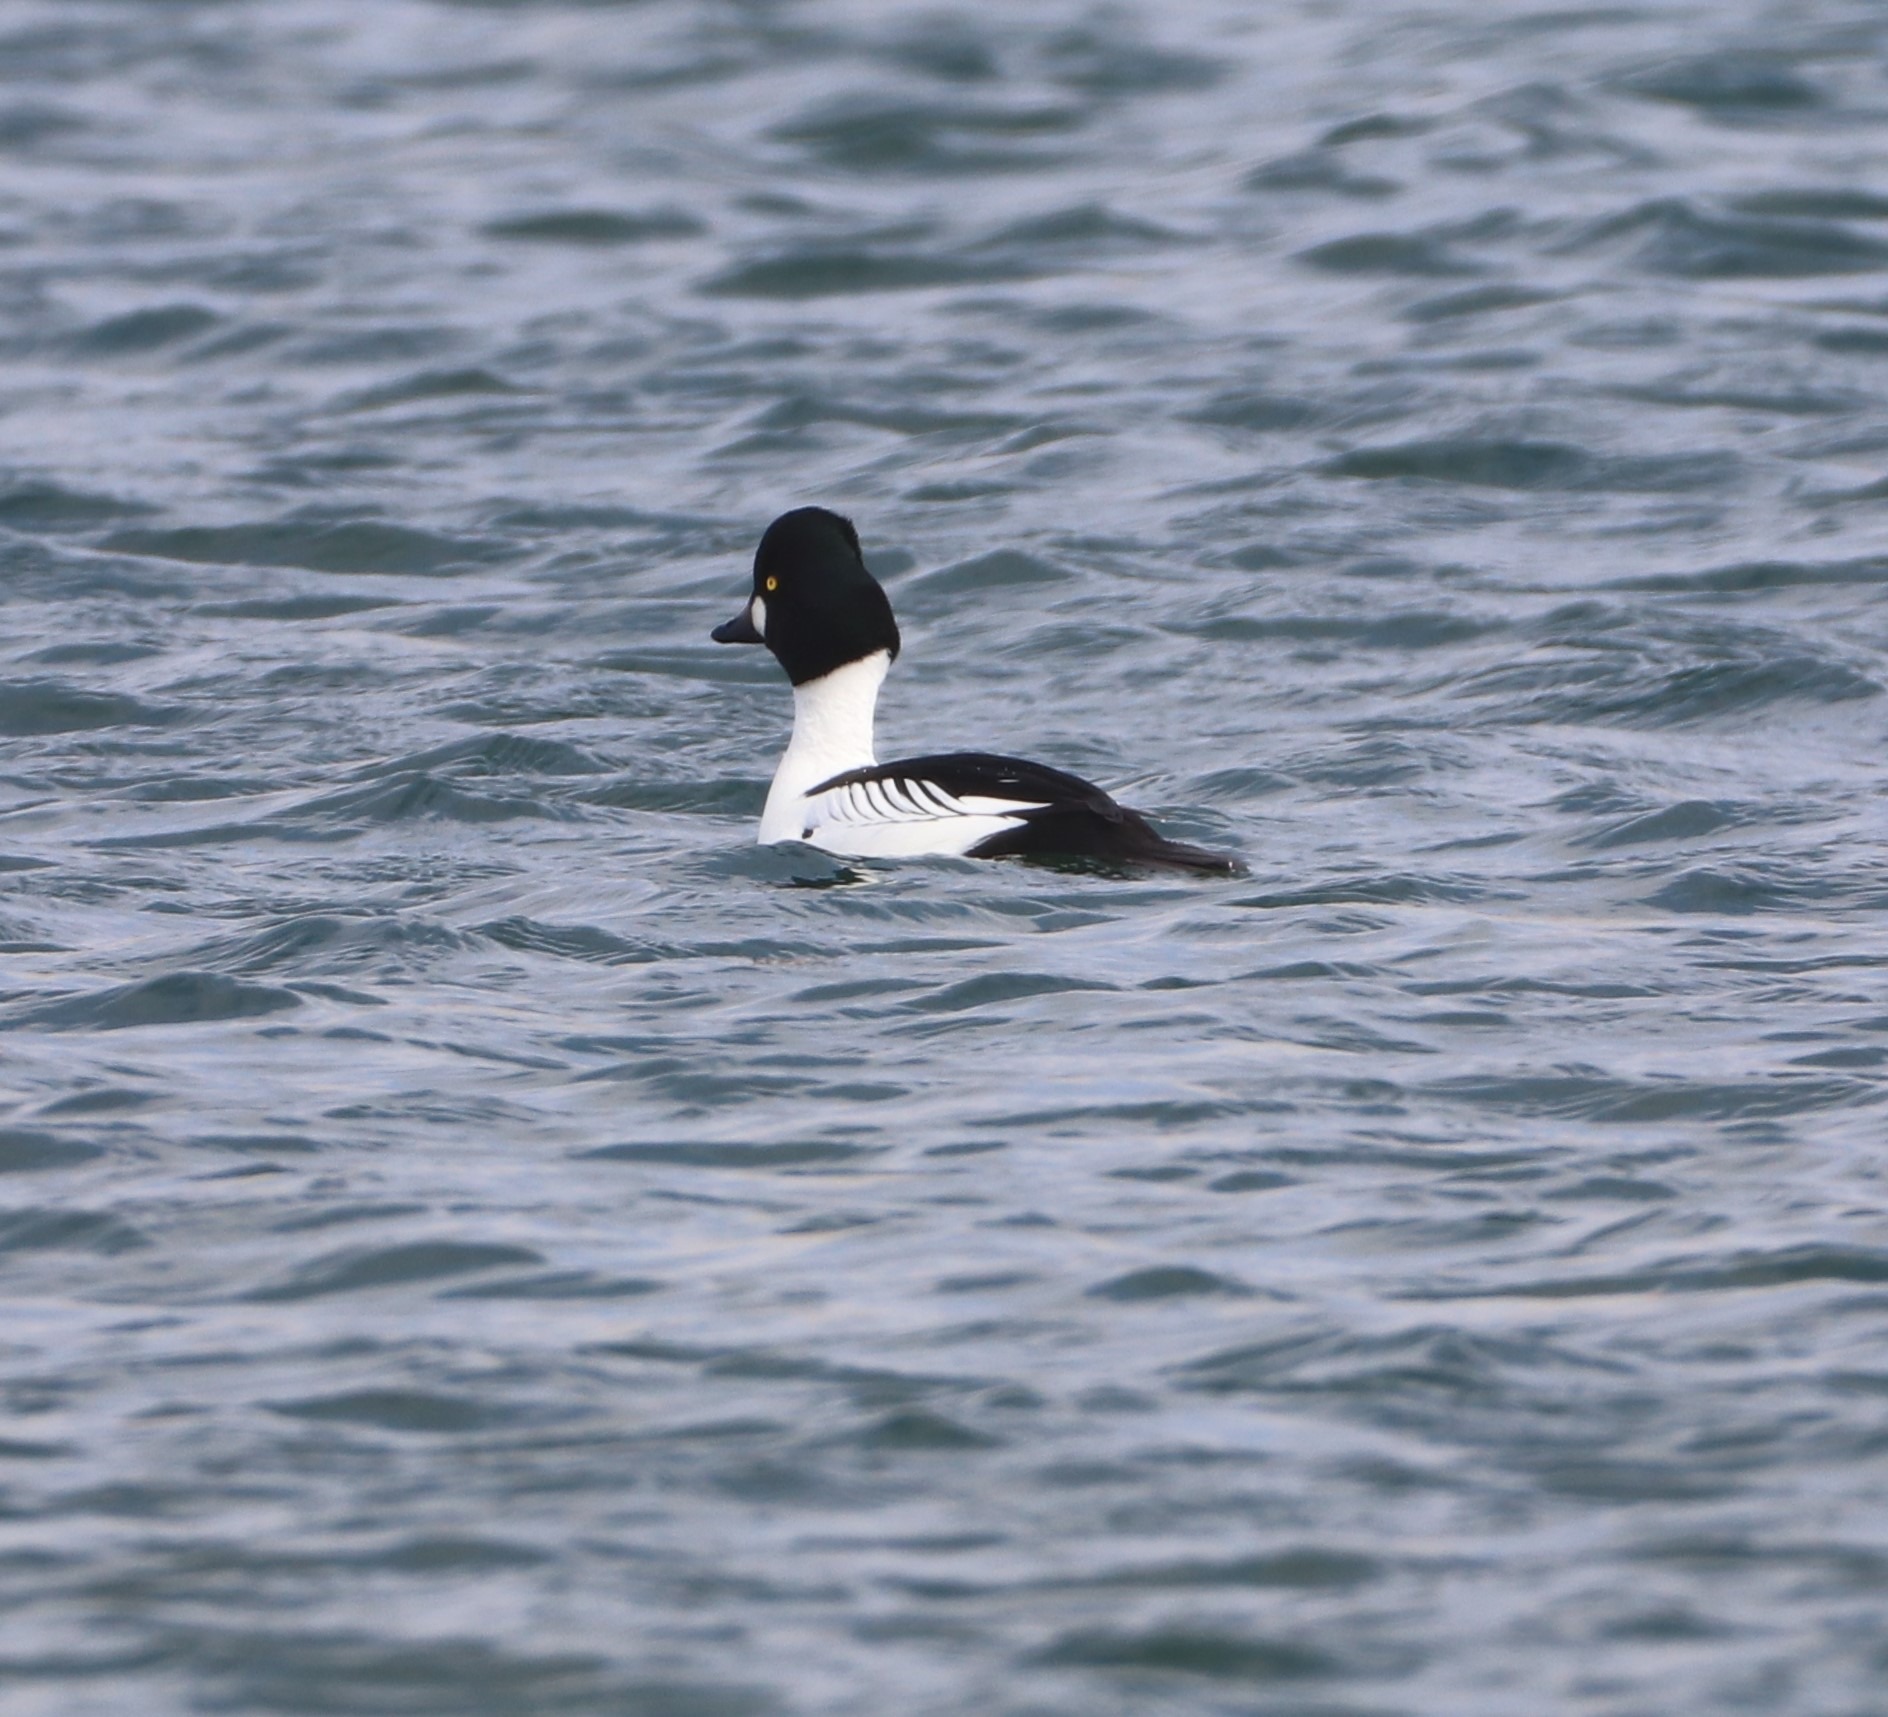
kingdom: Animalia
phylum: Chordata
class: Aves
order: Anseriformes
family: Anatidae
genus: Bucephala
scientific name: Bucephala clangula
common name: Hvinand
